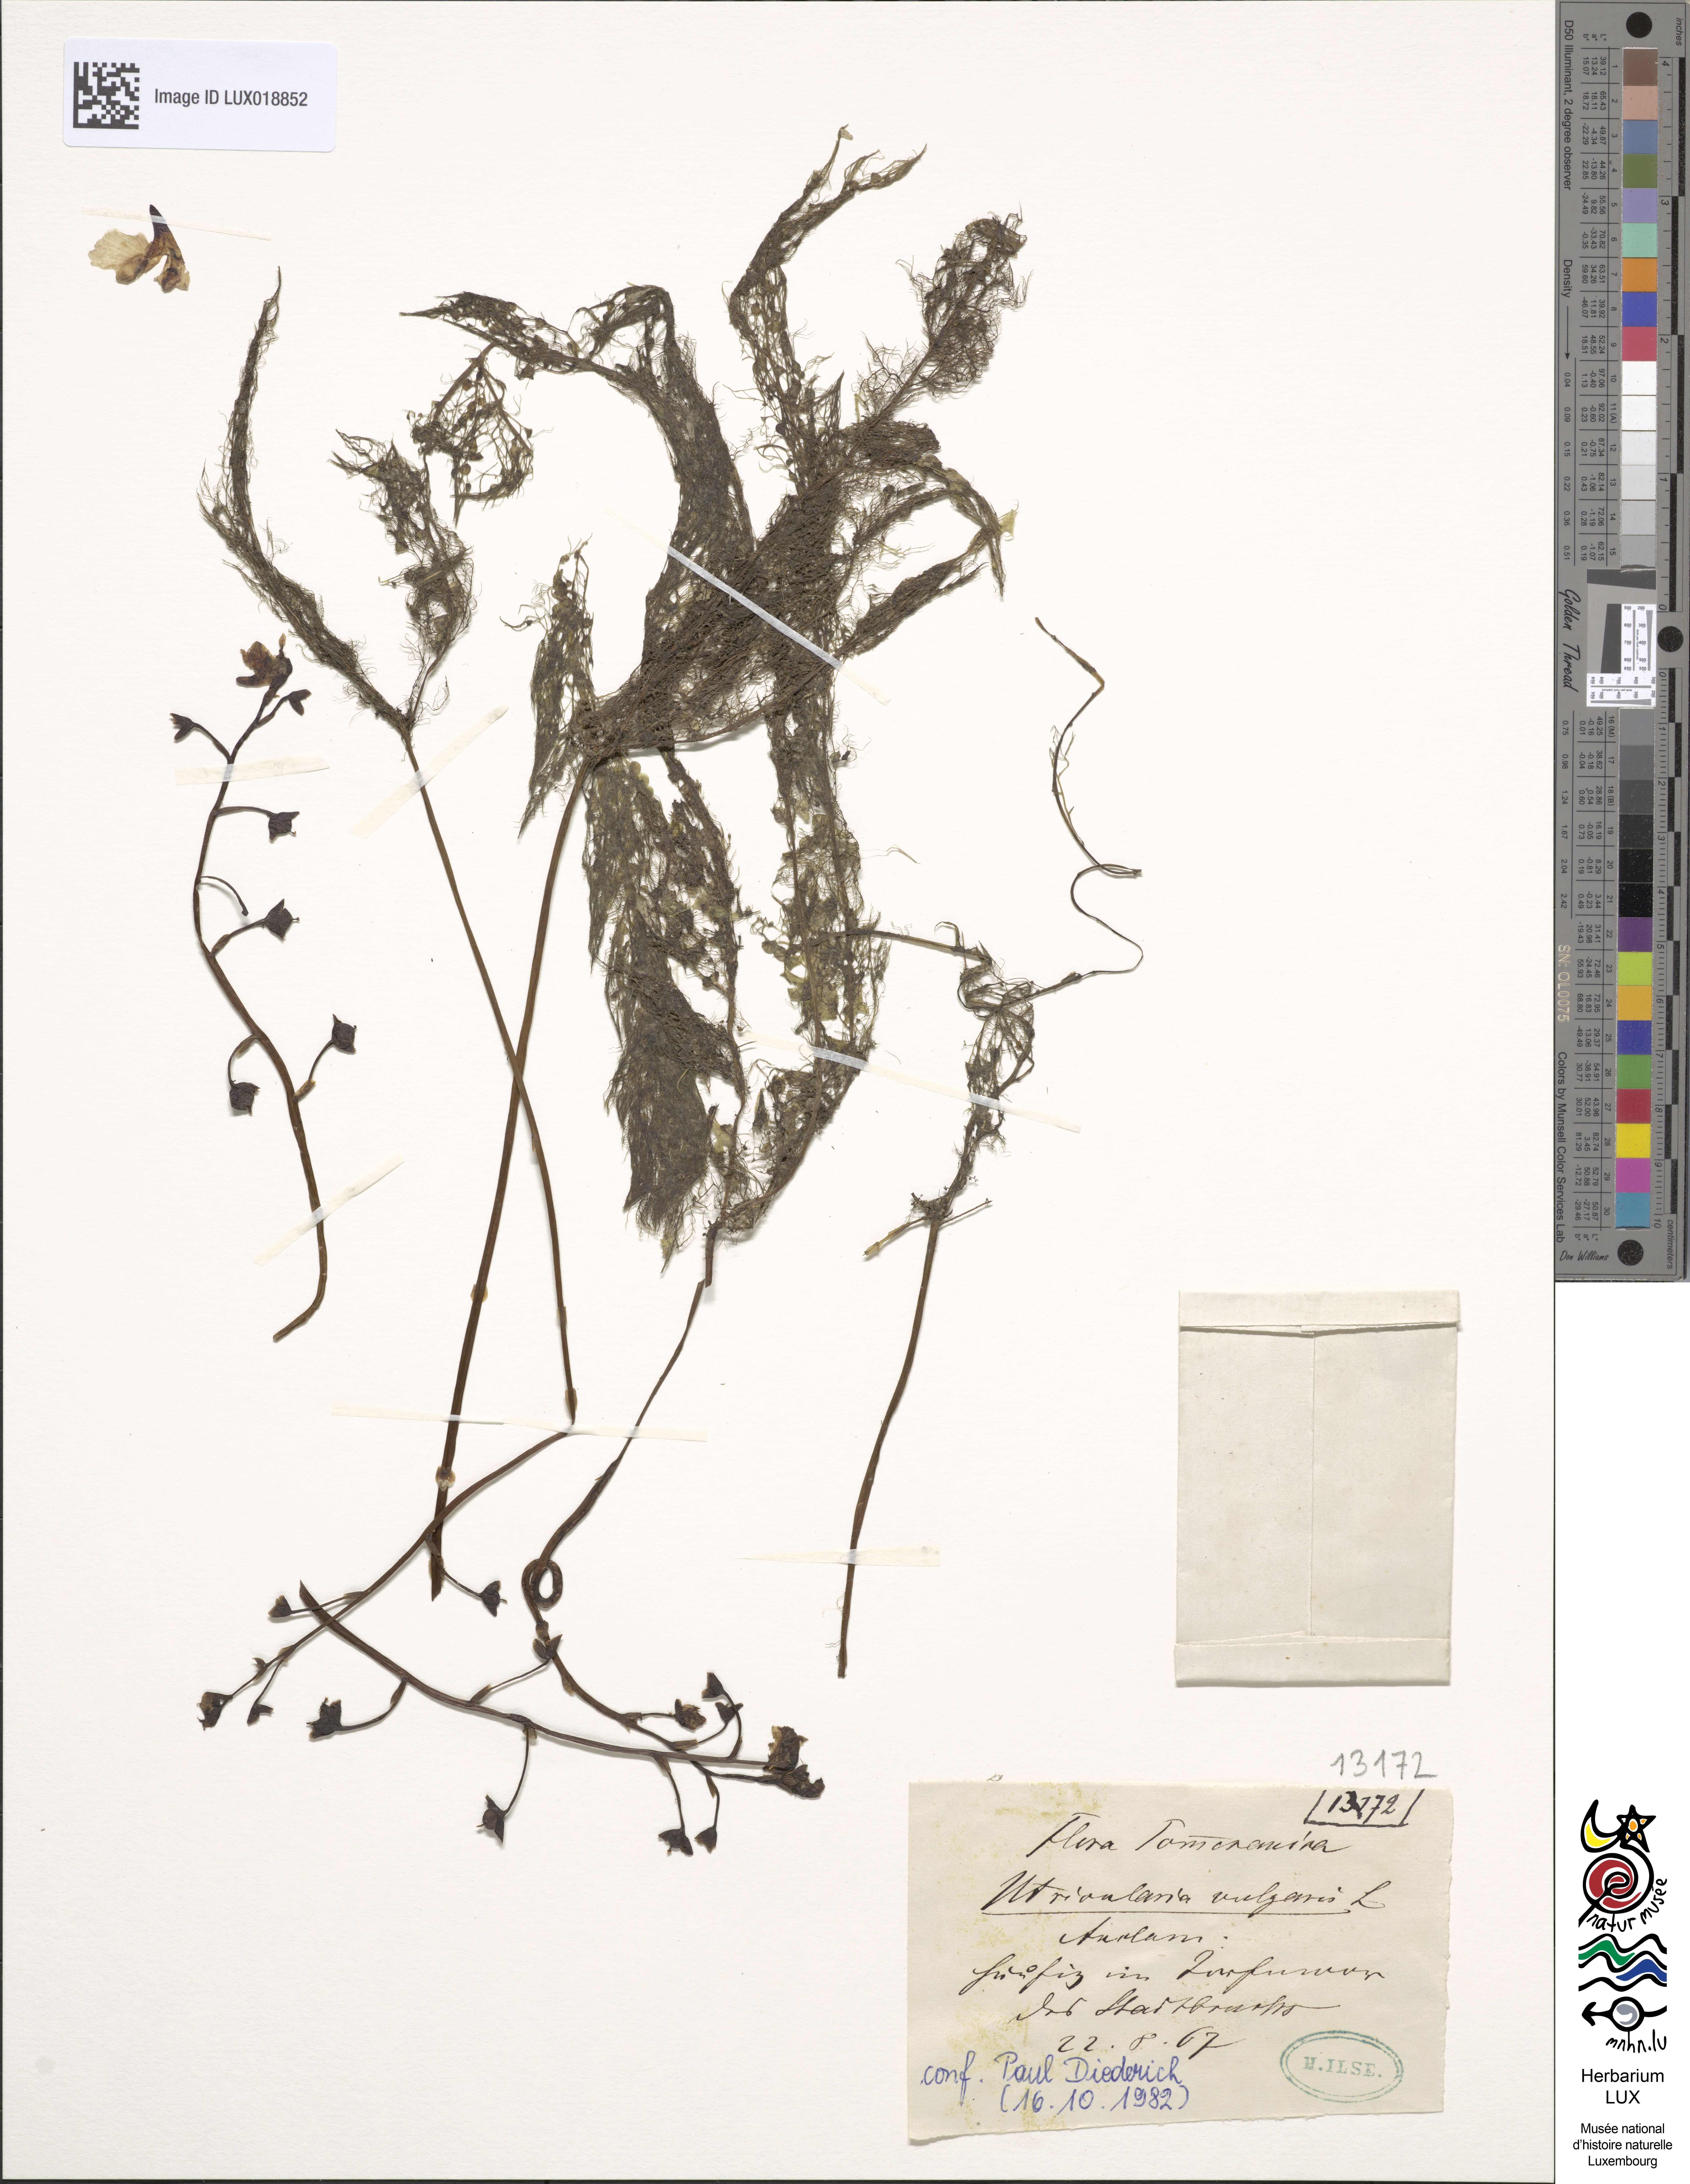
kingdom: Plantae
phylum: Tracheophyta
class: Magnoliopsida
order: Lamiales
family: Lentibulariaceae
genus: Utricularia
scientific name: Utricularia vulgaris
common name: Greater bladderwort
